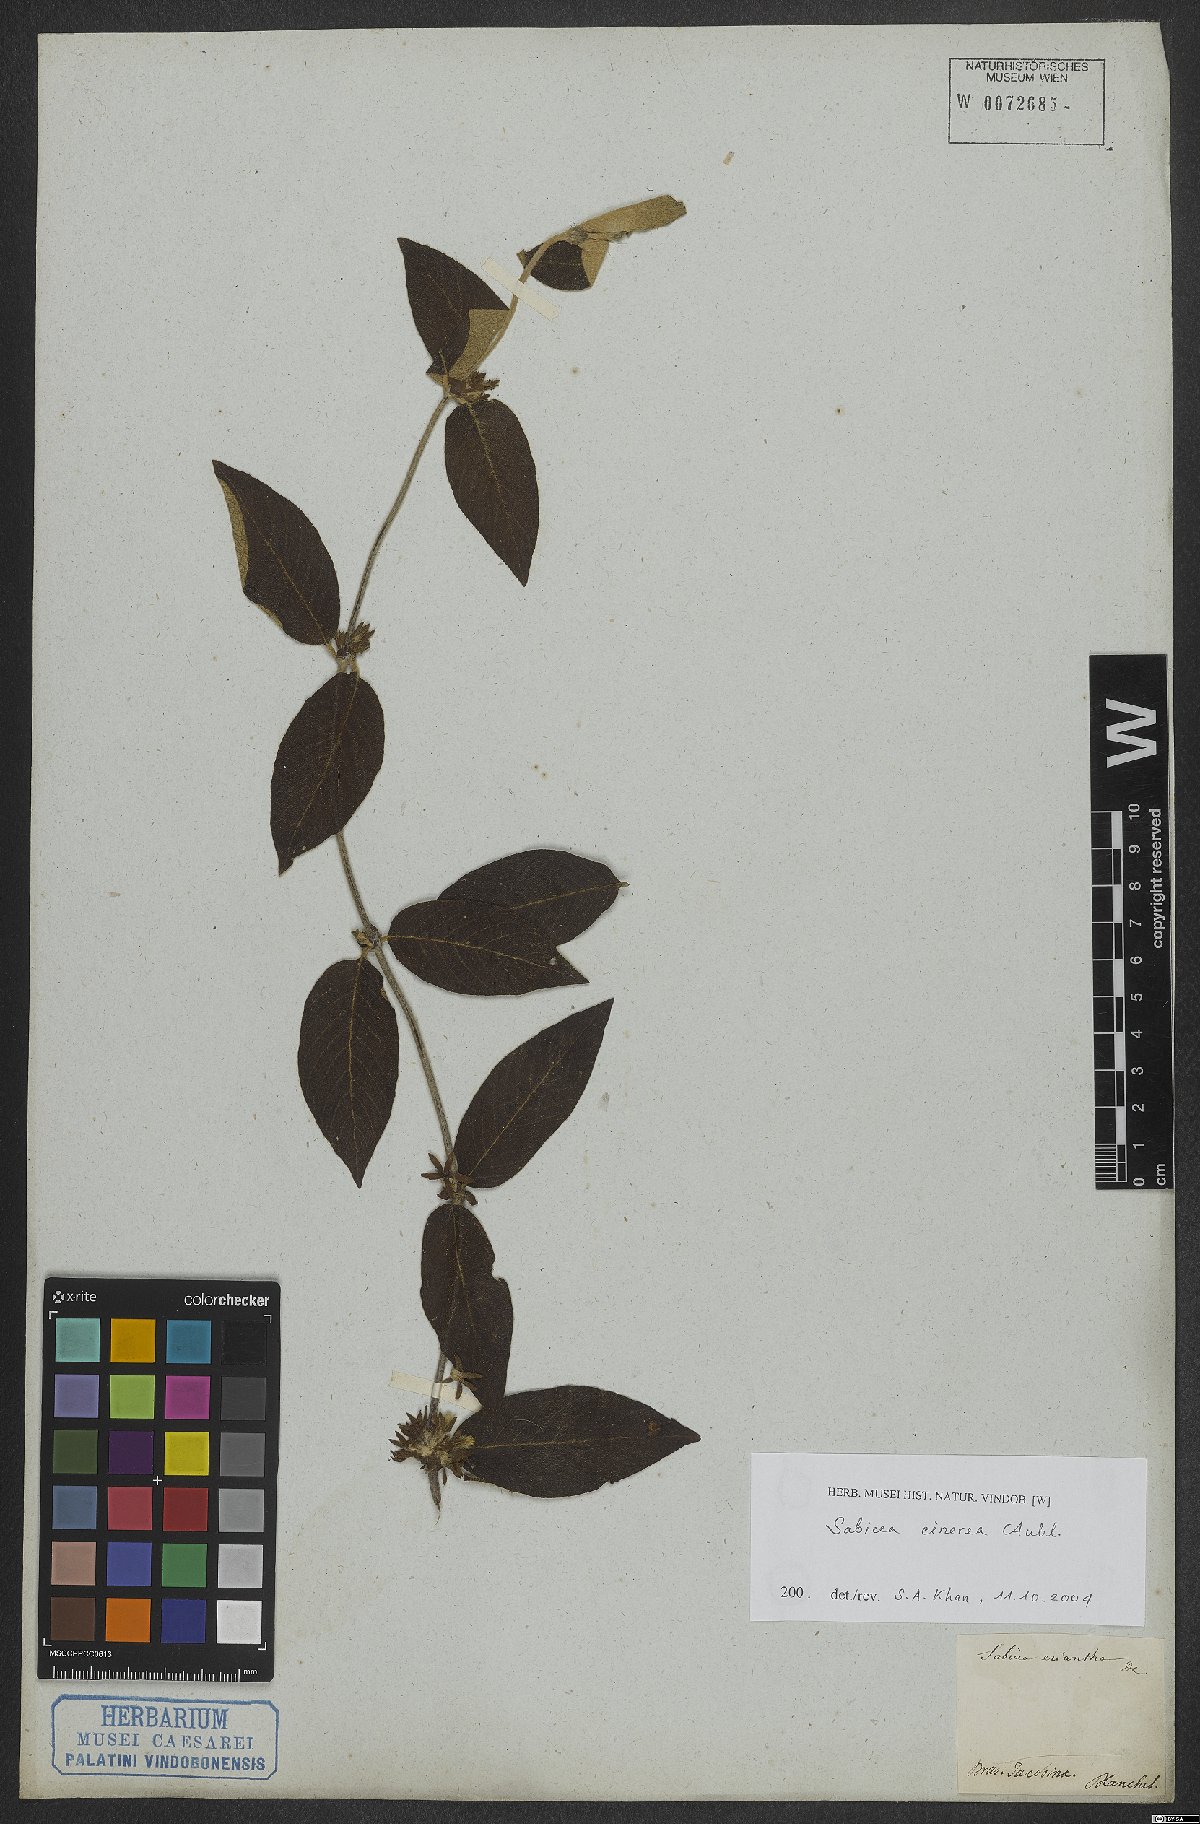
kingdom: Plantae
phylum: Tracheophyta
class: Magnoliopsida
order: Gentianales
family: Rubiaceae
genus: Sabicea
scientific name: Sabicea cinerea
